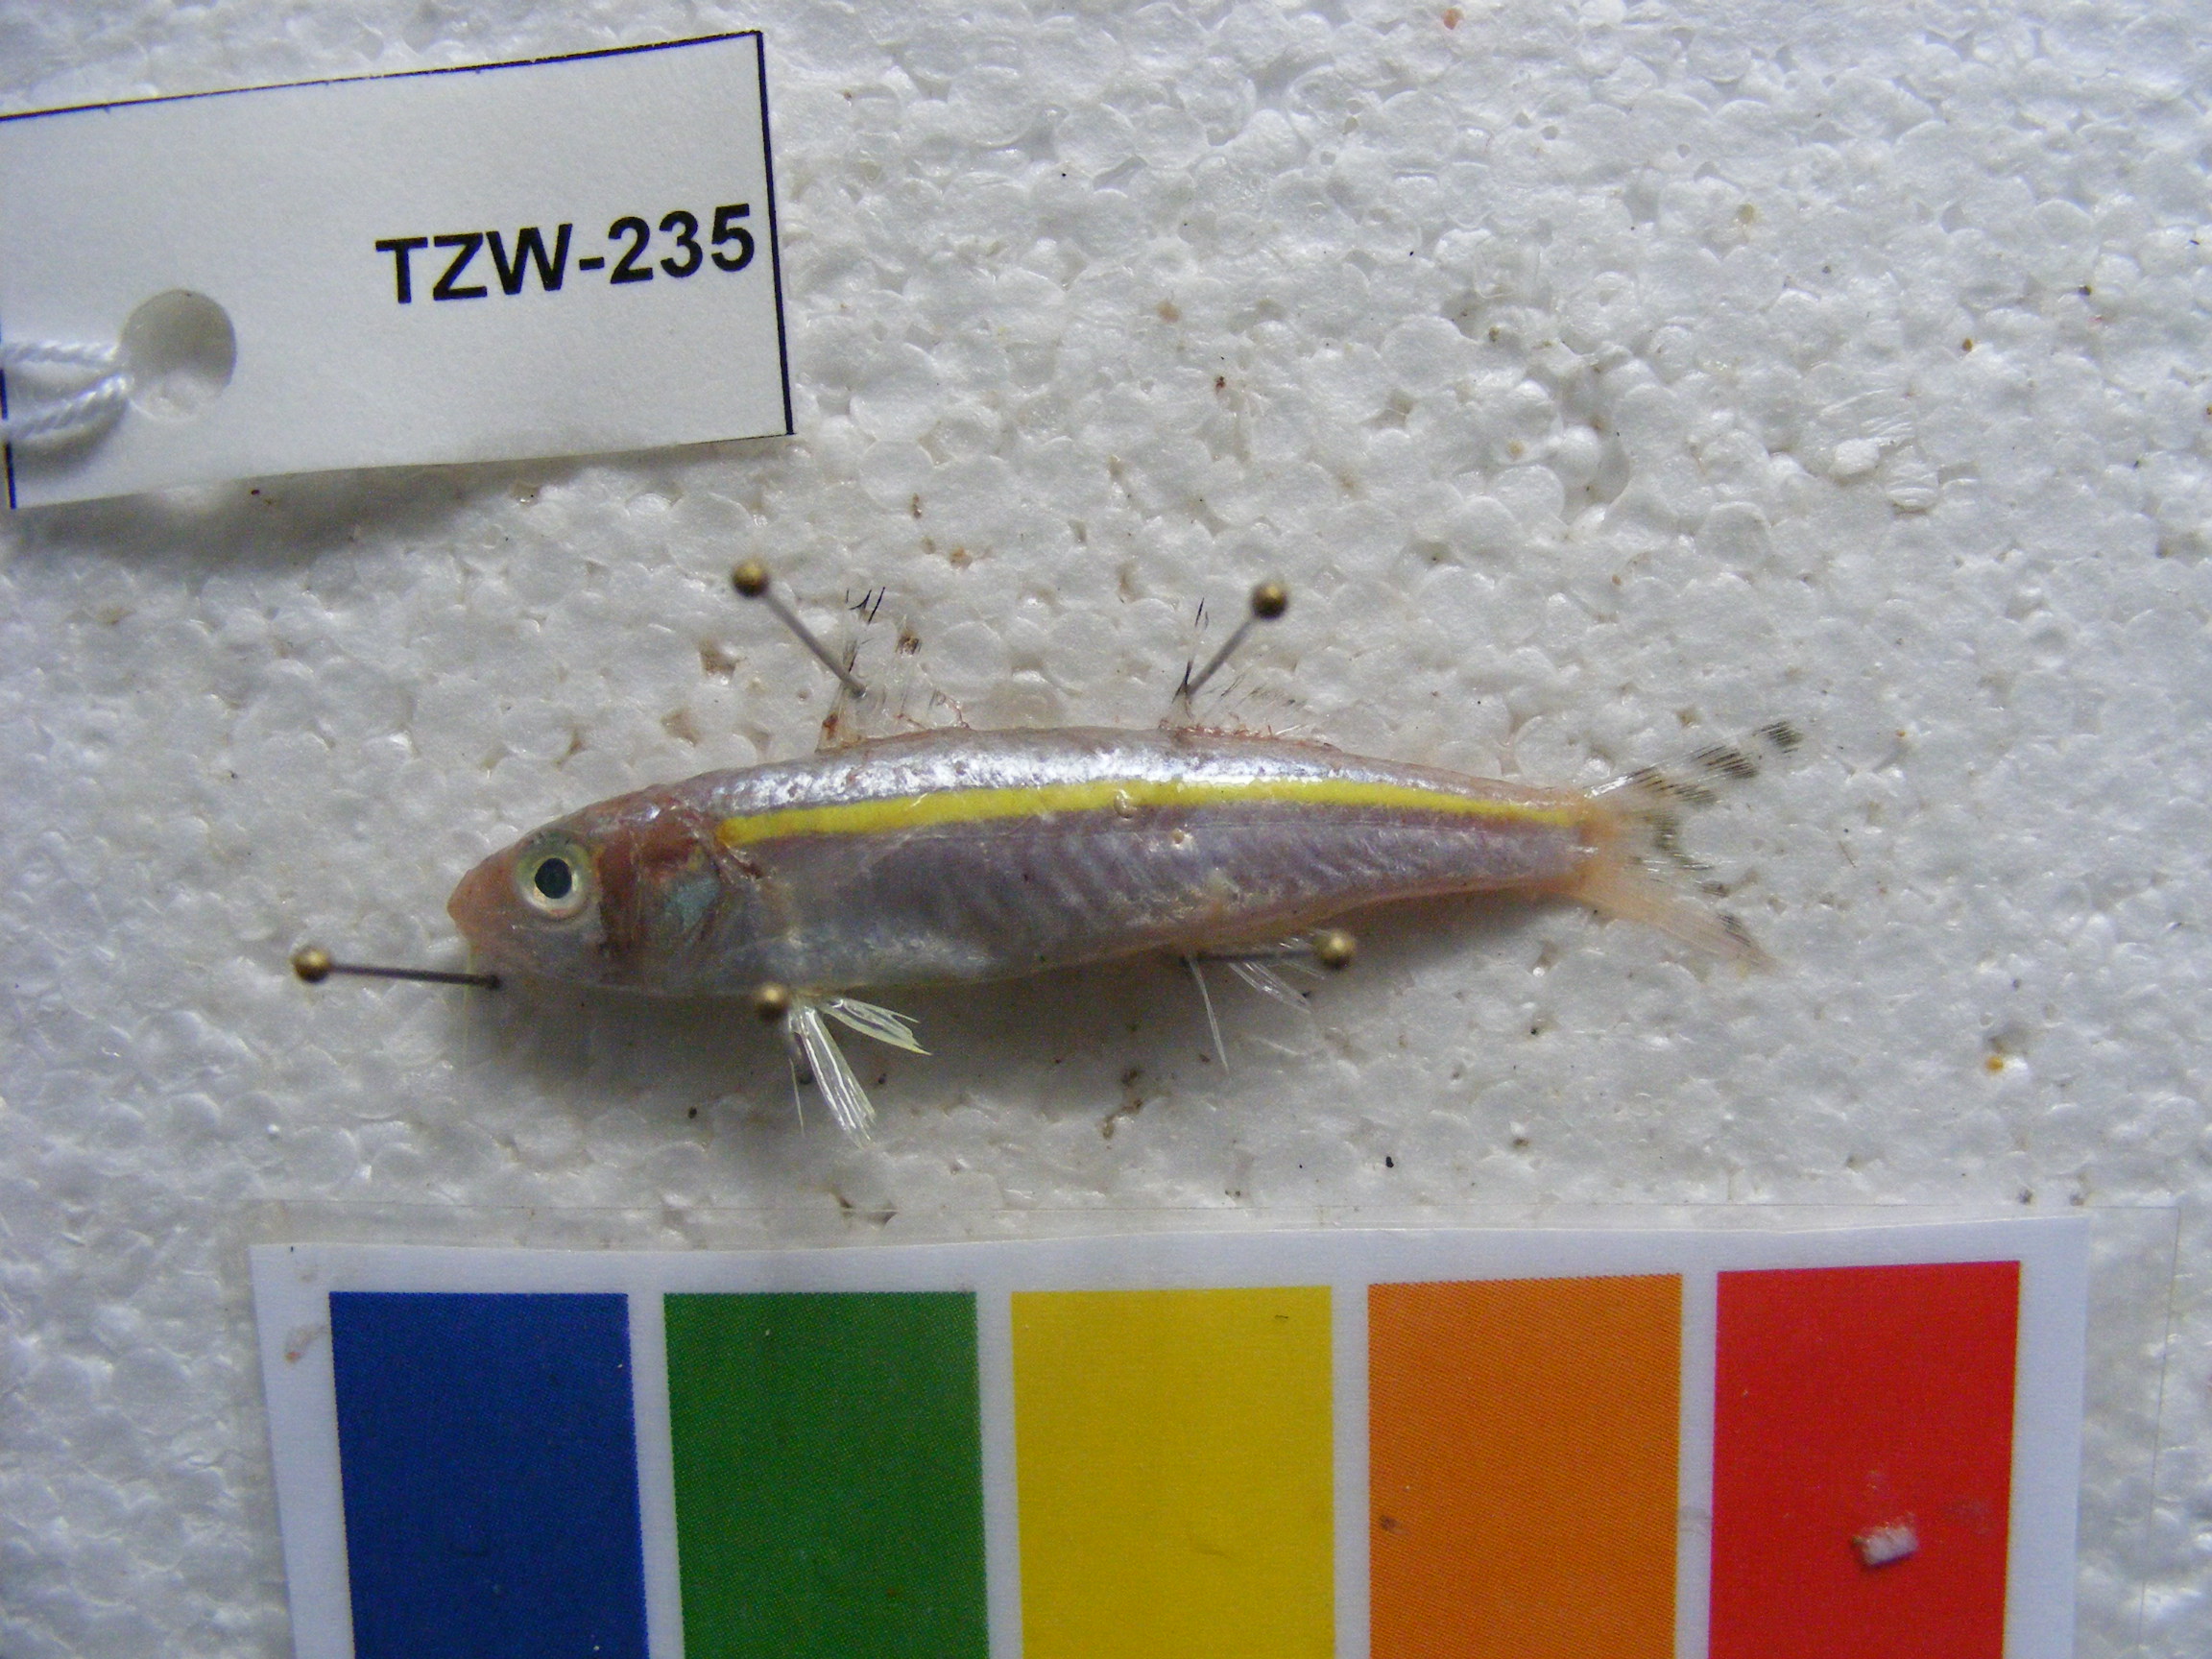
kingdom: Animalia
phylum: Chordata
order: Perciformes
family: Mullidae
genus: Upeneus
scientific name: Upeneus moluccensis
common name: Goldband goatfish
